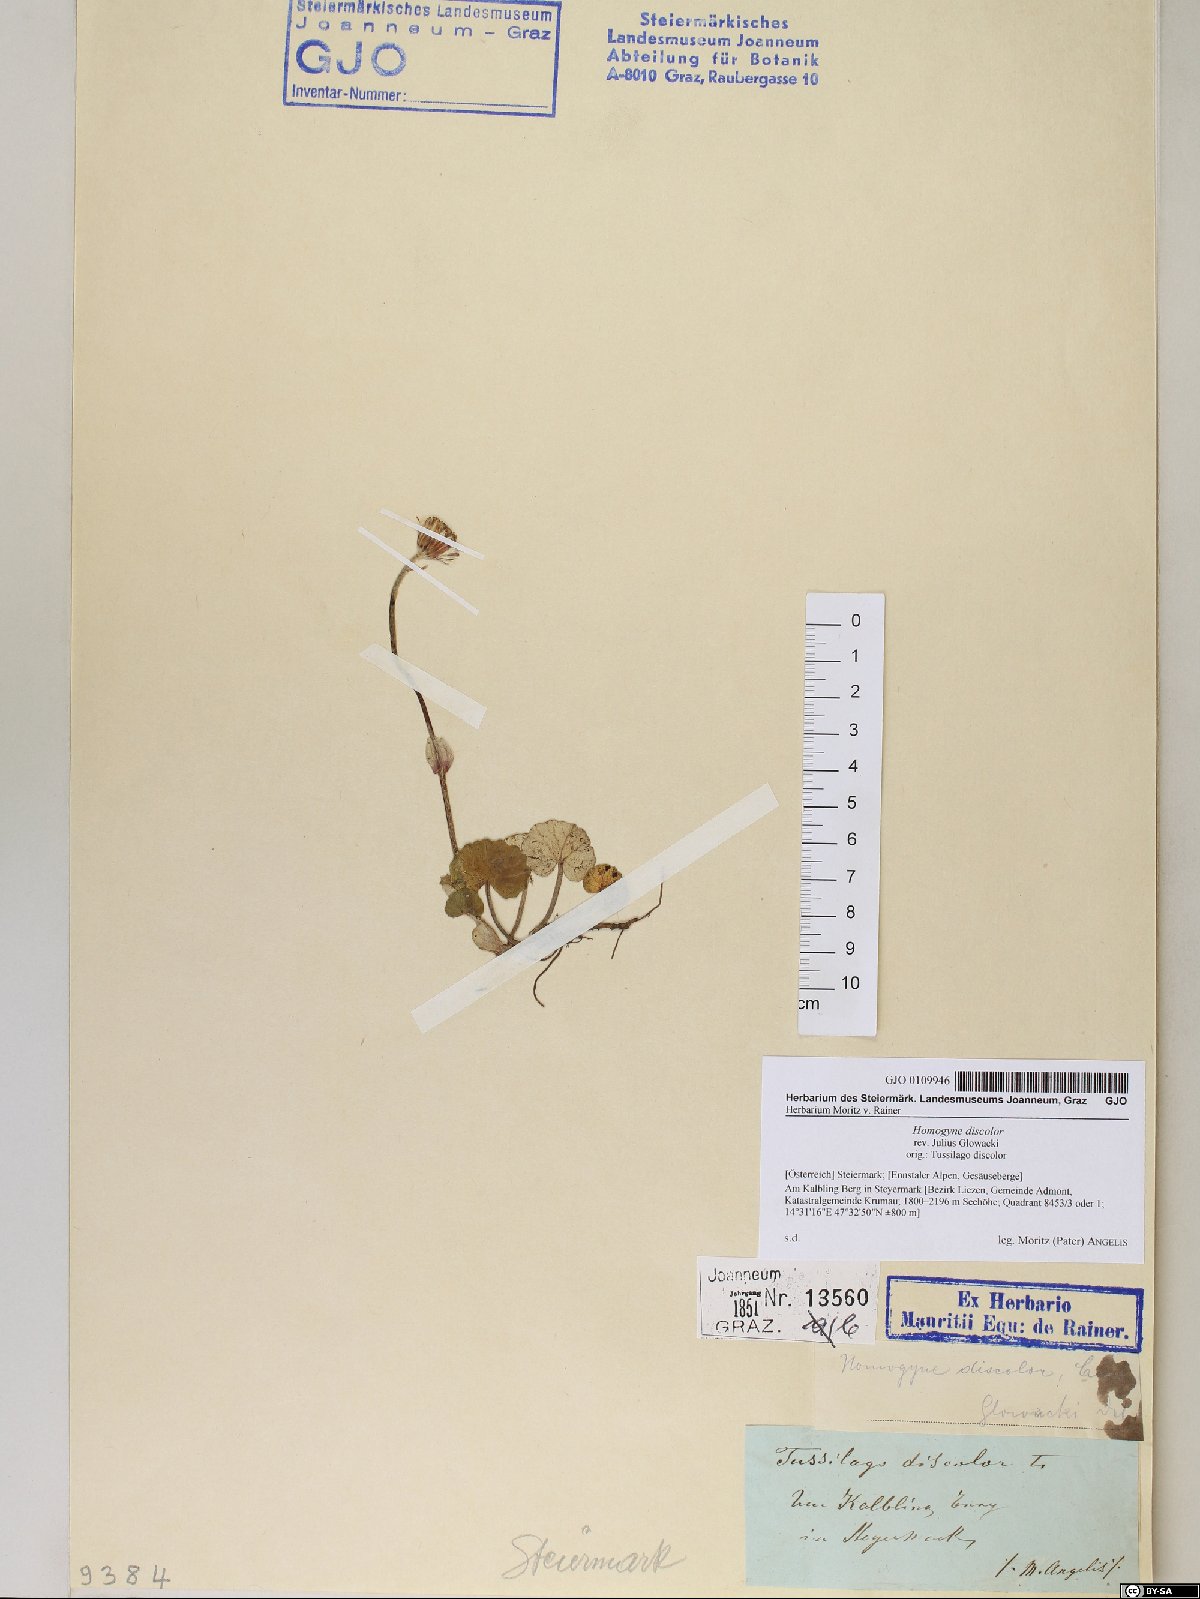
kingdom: Plantae
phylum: Tracheophyta
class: Magnoliopsida
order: Asterales
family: Asteraceae
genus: Homogyne
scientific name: Homogyne discolor
